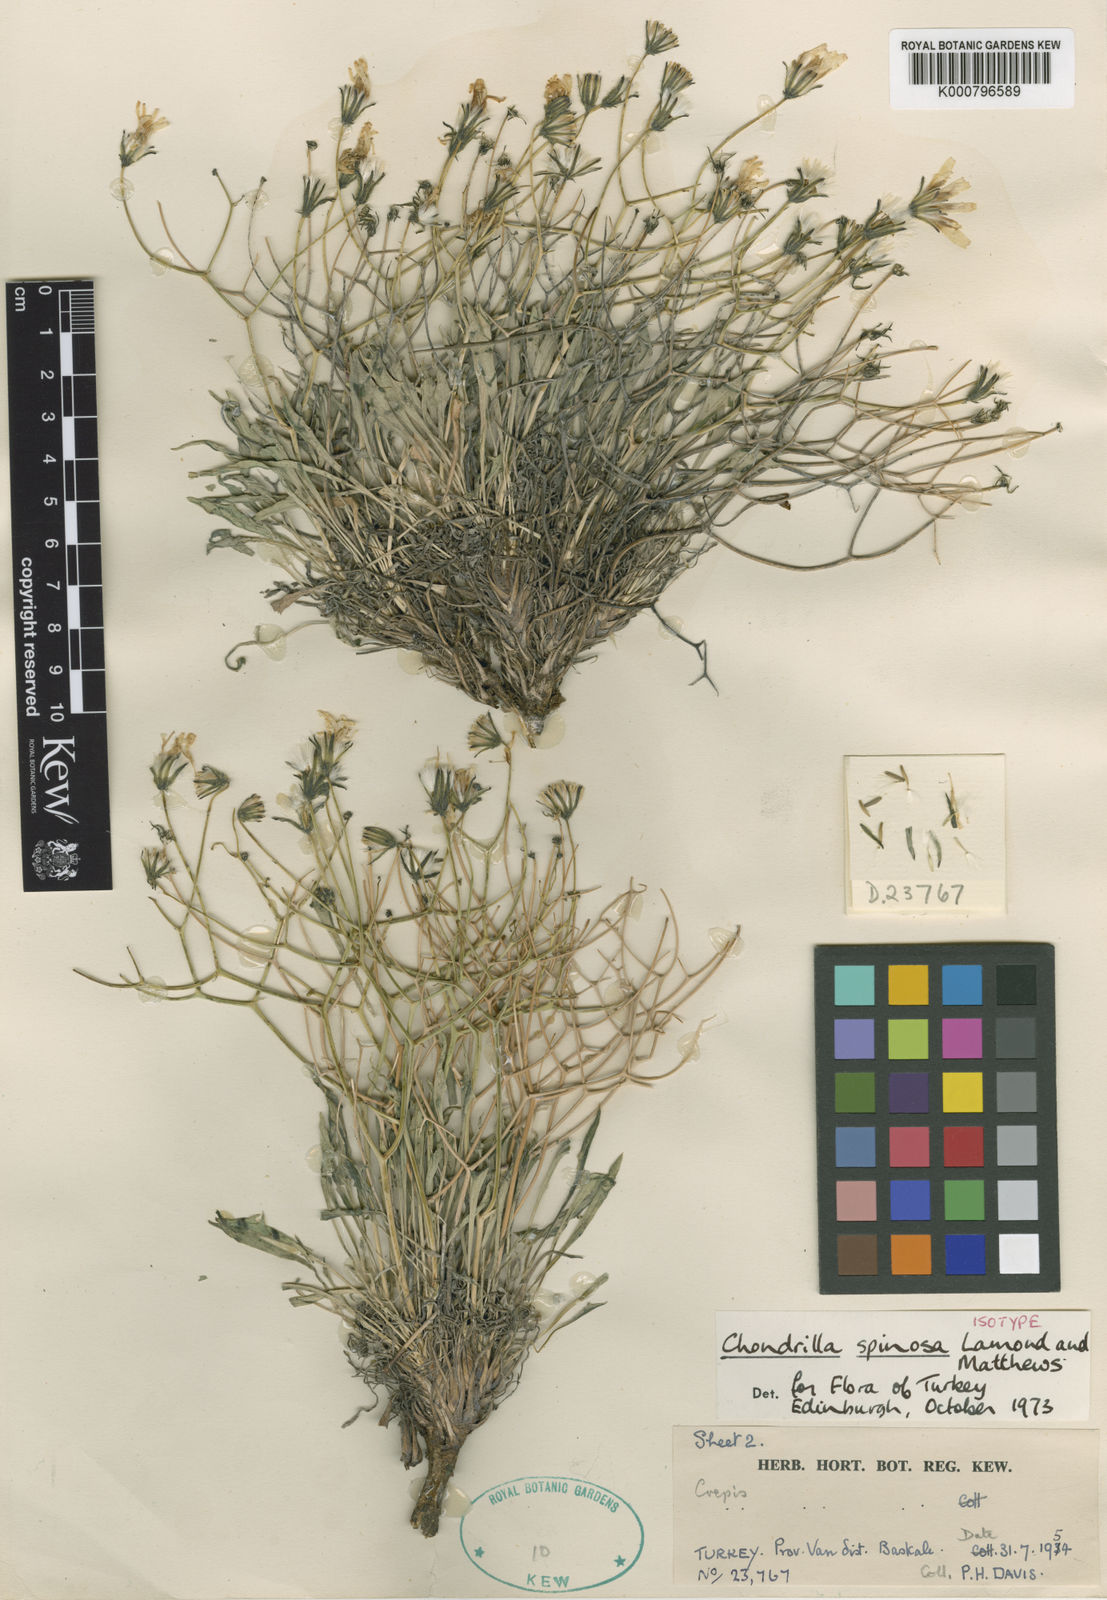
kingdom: Plantae
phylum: Tracheophyta
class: Magnoliopsida
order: Asterales
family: Asteraceae
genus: Chondrilla
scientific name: Chondrilla spinosa
